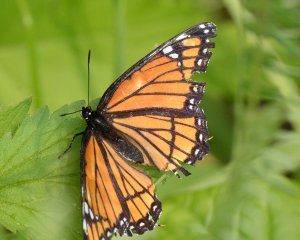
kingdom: Animalia
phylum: Arthropoda
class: Insecta
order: Lepidoptera
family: Nymphalidae
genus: Limenitis
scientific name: Limenitis archippus
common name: Viceroy
